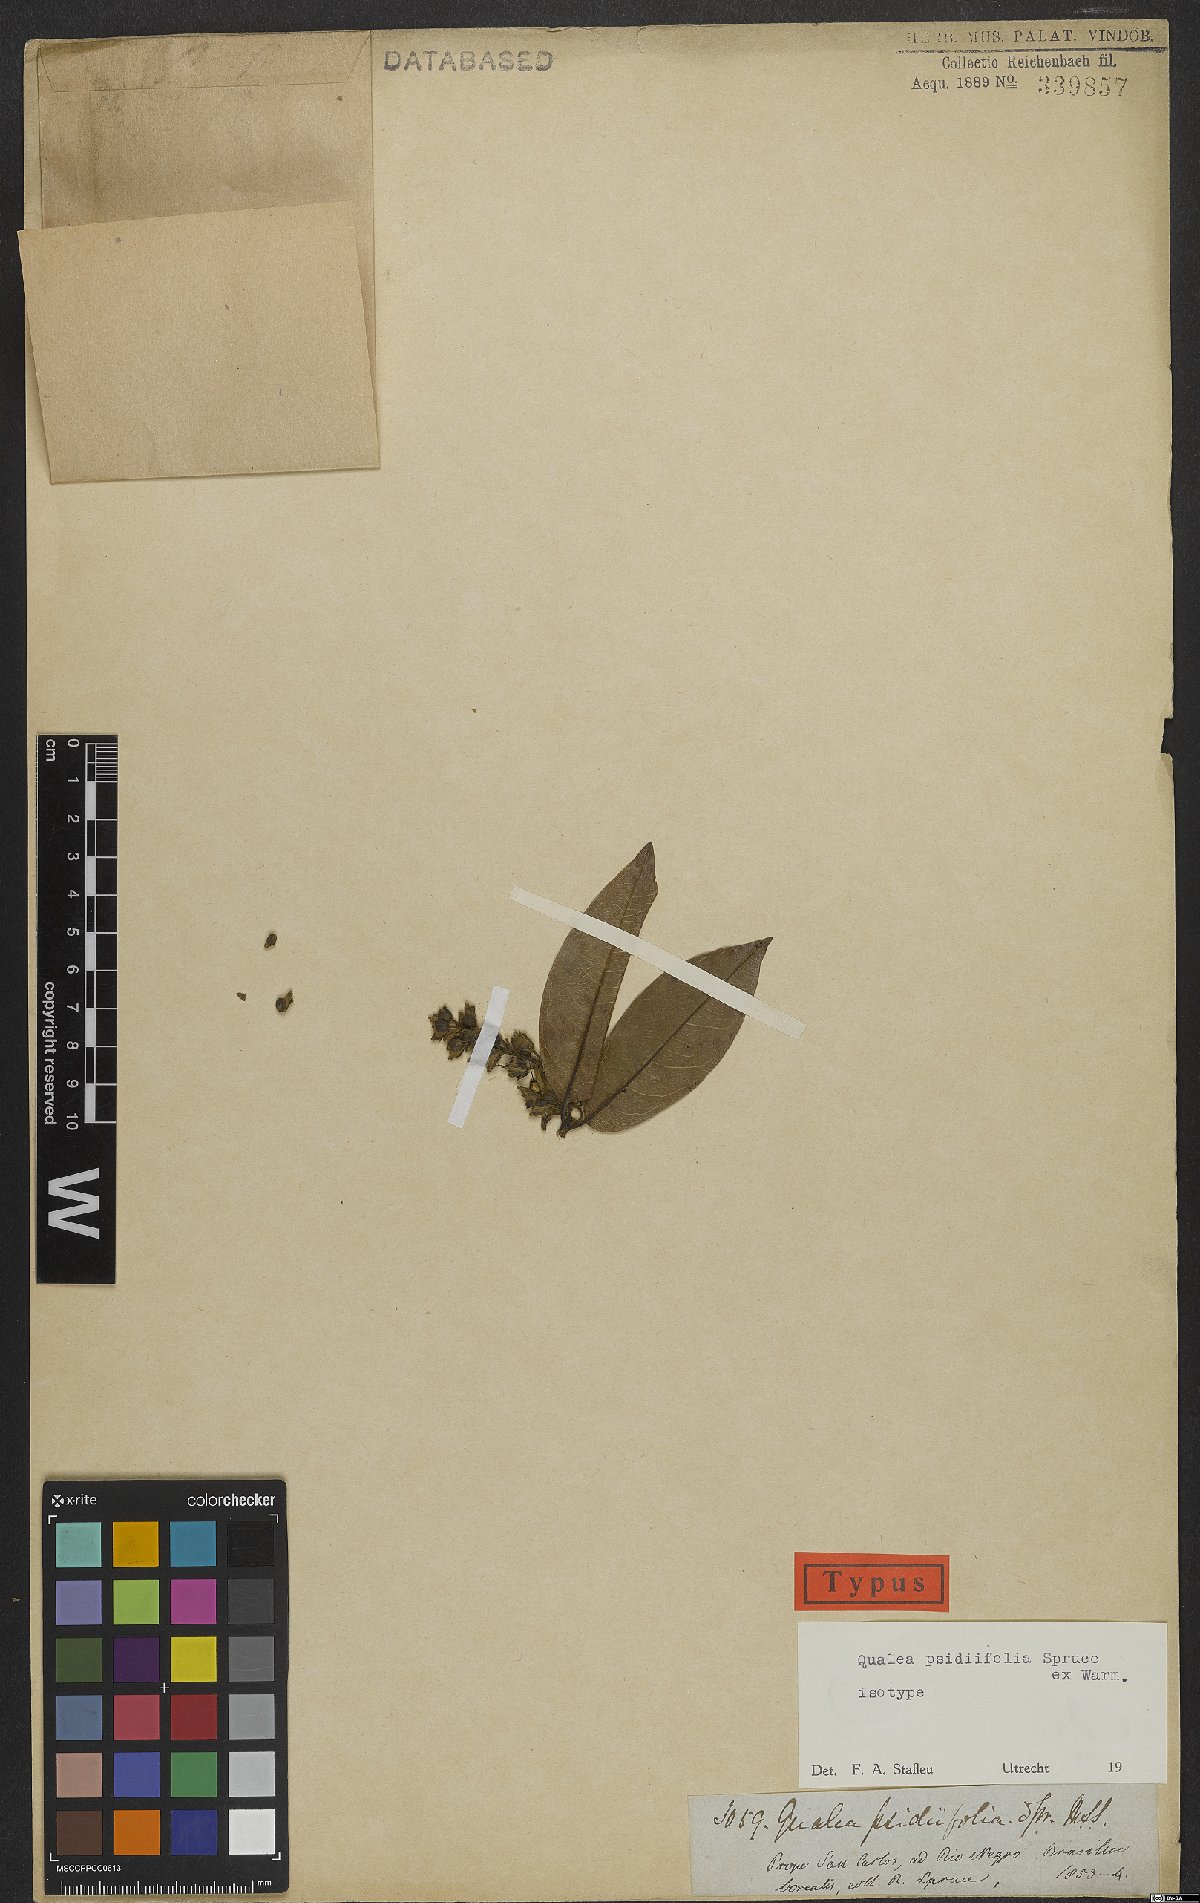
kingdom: Plantae
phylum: Tracheophyta
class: Magnoliopsida
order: Myrtales
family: Vochysiaceae
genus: Qualea
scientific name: Qualea psidiifolia
